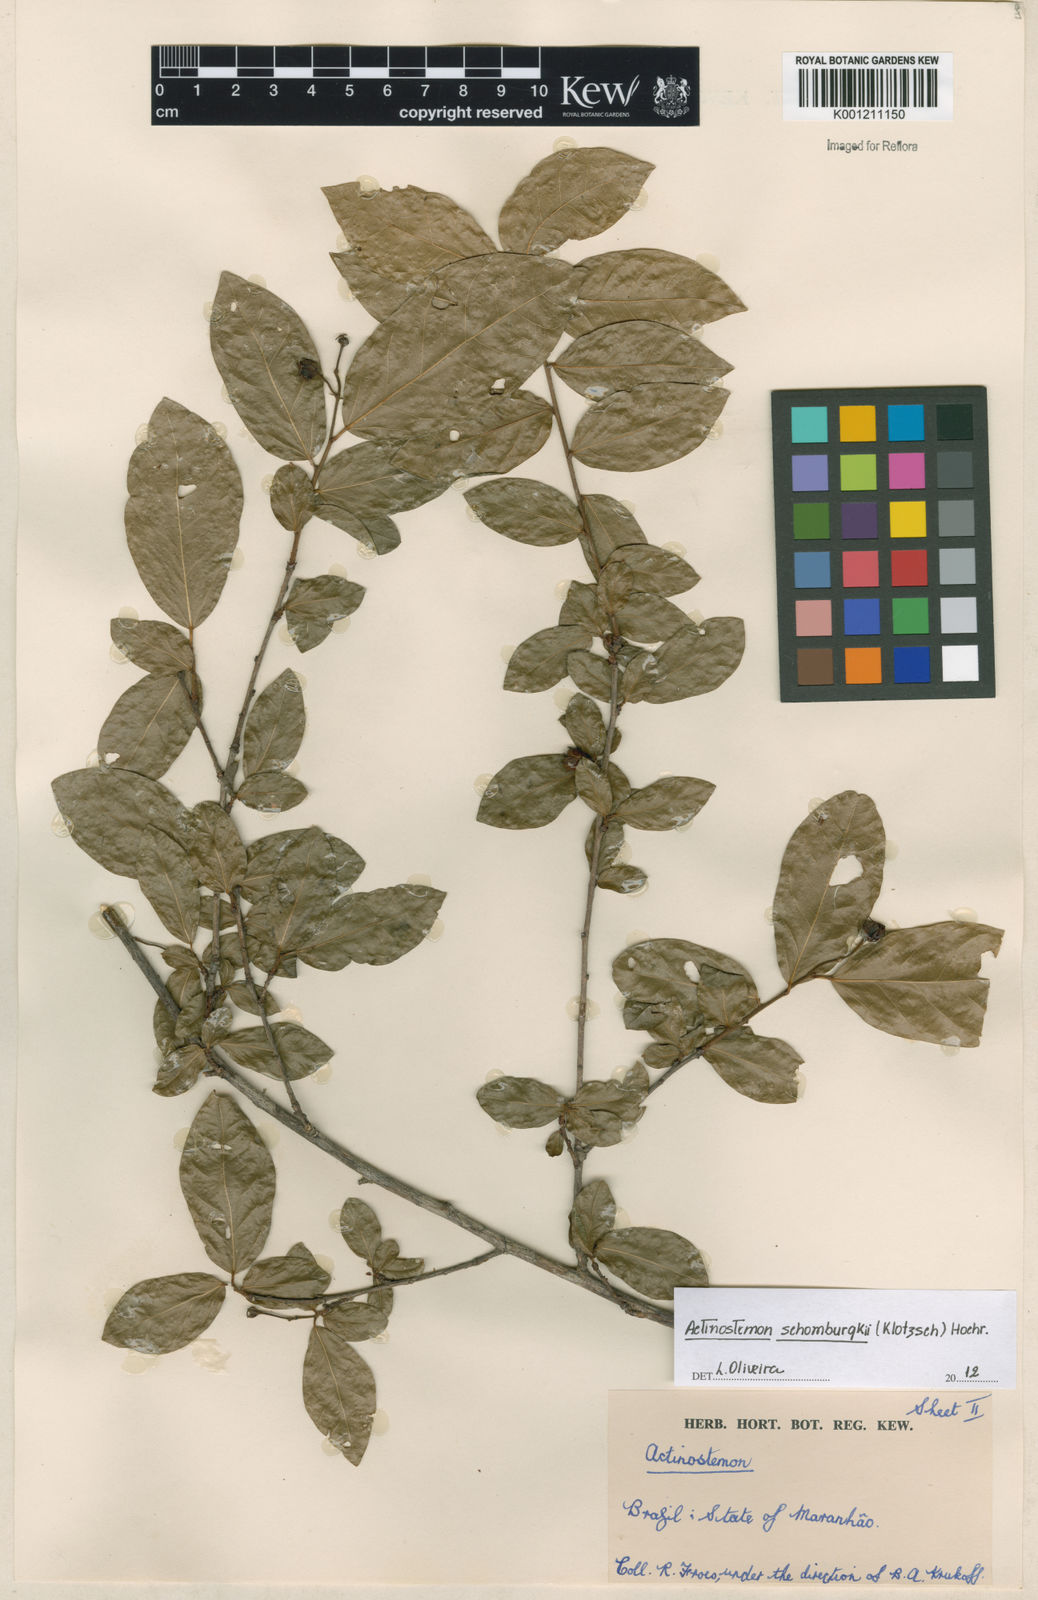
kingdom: Plantae
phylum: Tracheophyta
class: Magnoliopsida
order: Malpighiales
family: Euphorbiaceae
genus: Actinostemon
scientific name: Actinostemon schomburgkii
